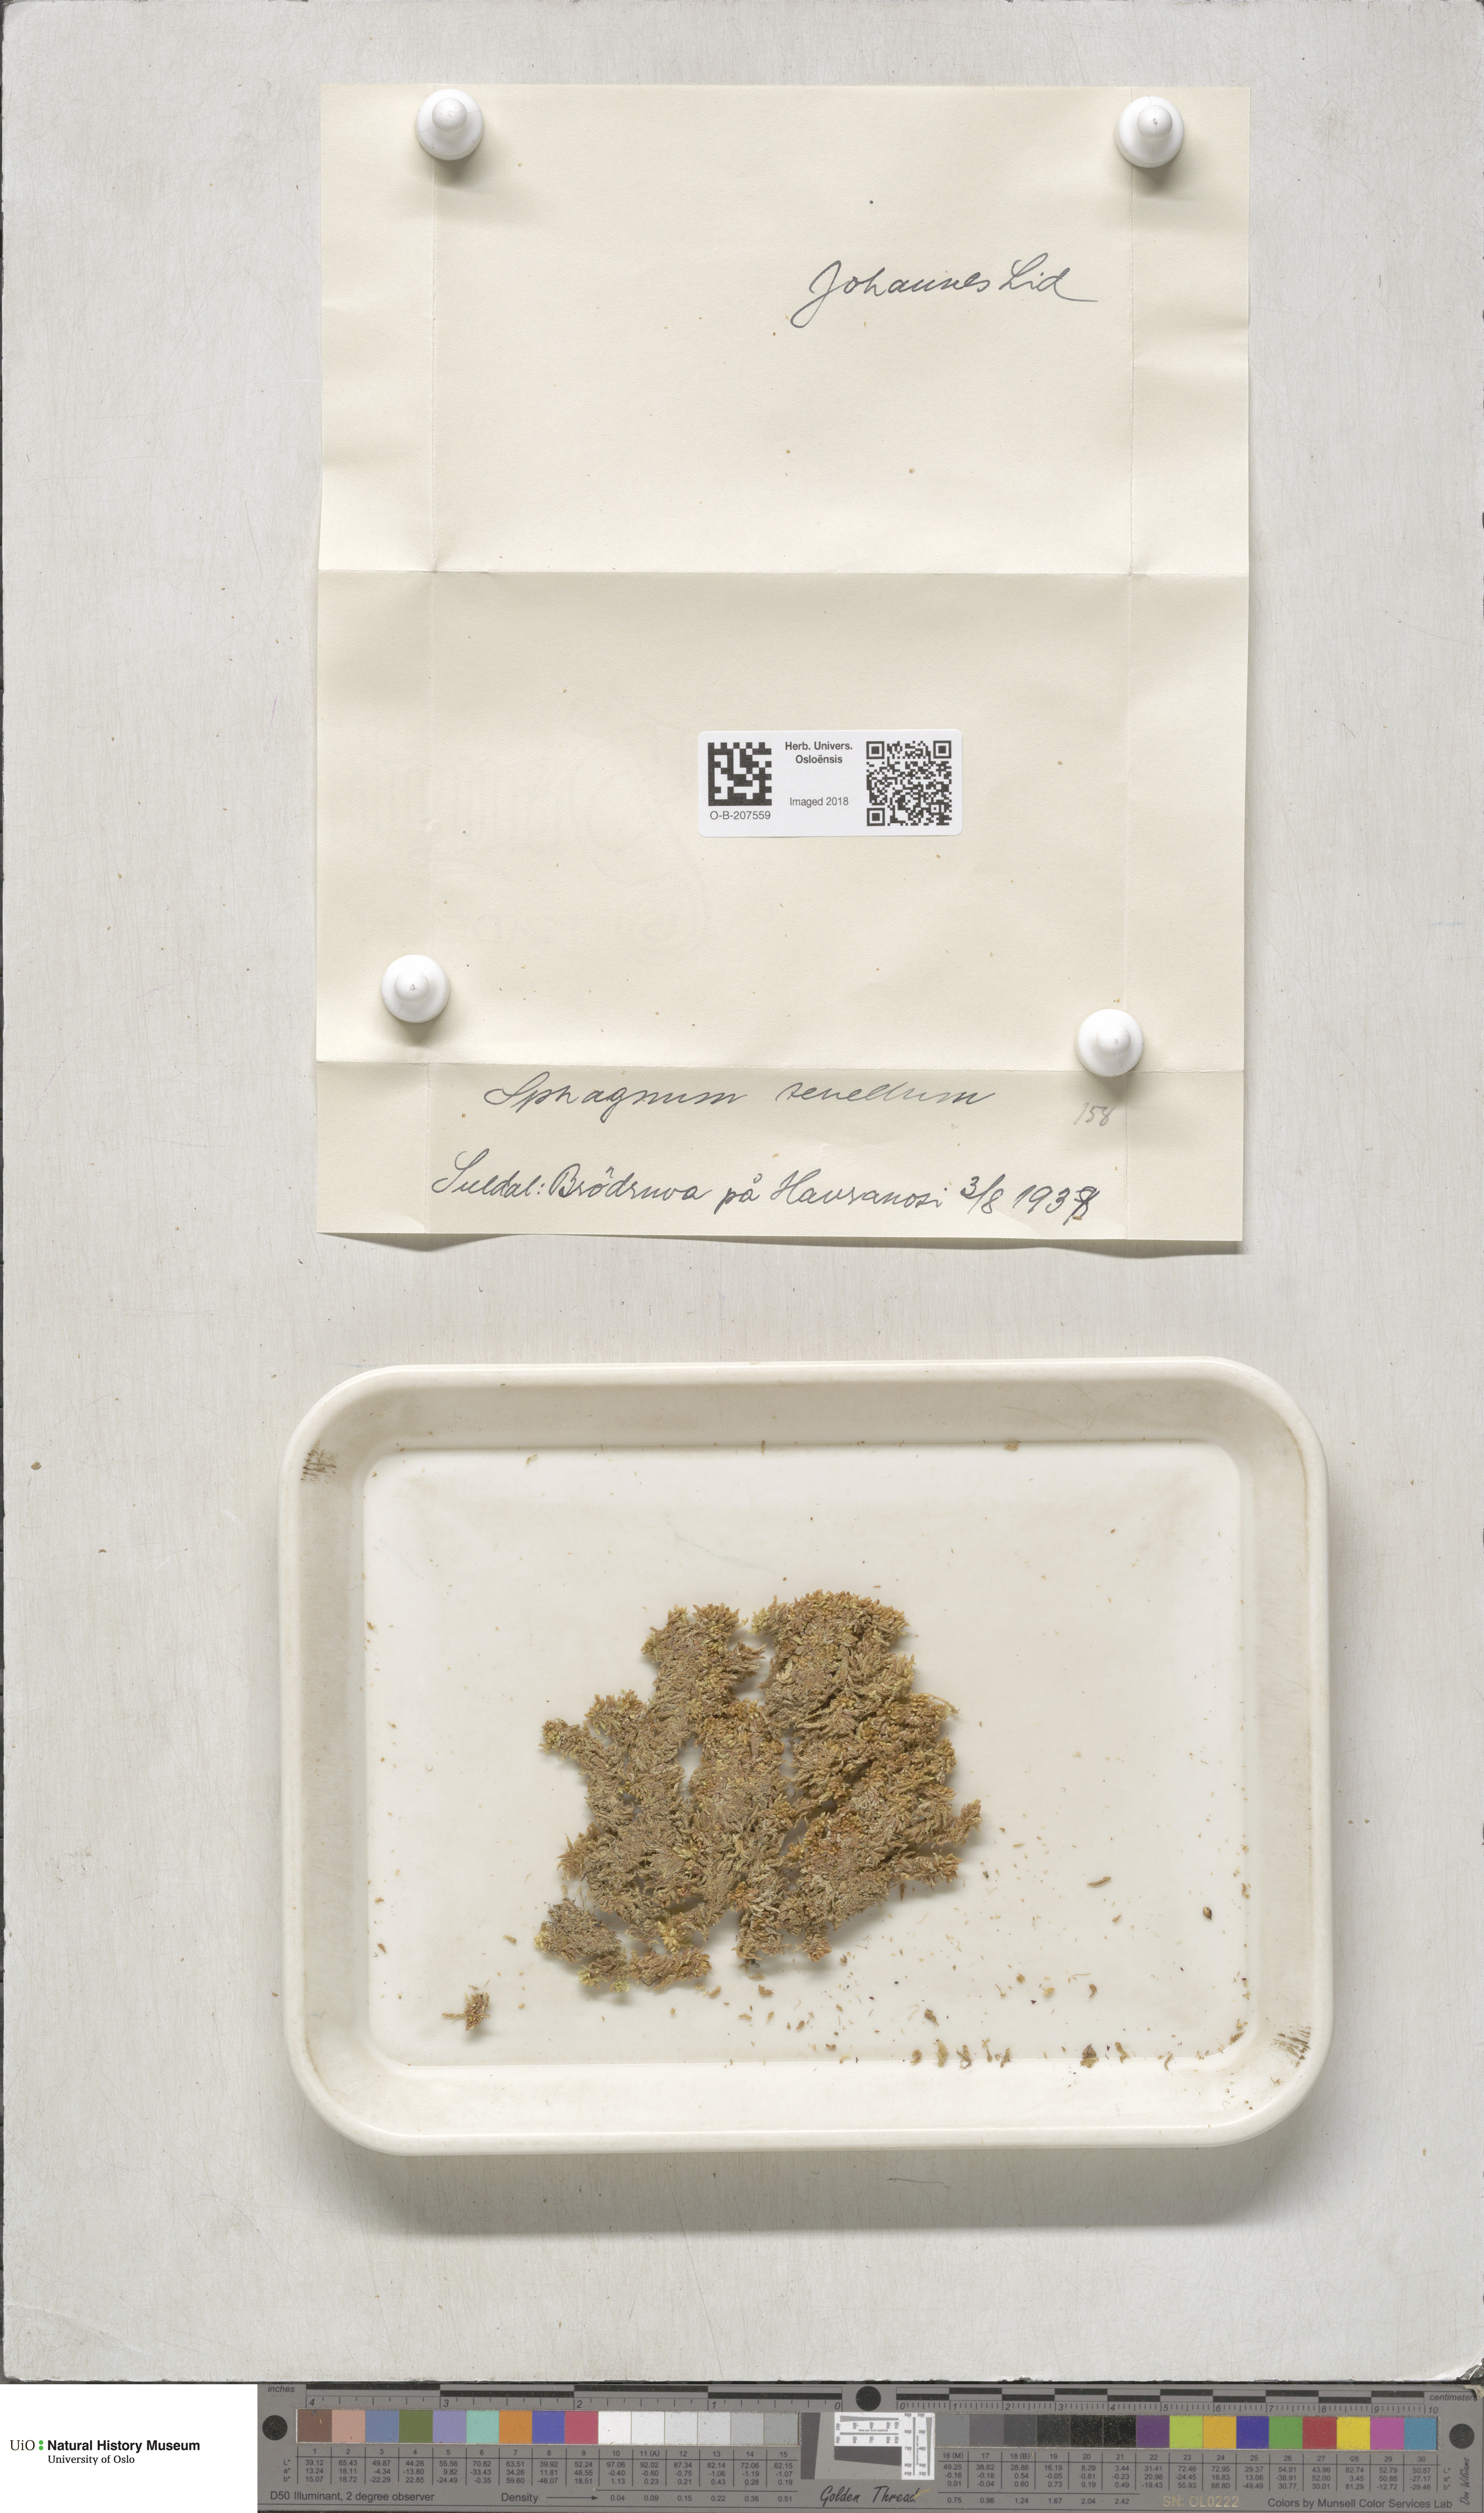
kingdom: Plantae
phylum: Bryophyta
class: Sphagnopsida
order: Sphagnales
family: Sphagnaceae
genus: Sphagnum
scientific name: Sphagnum tenellum
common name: Soft bog-moss
